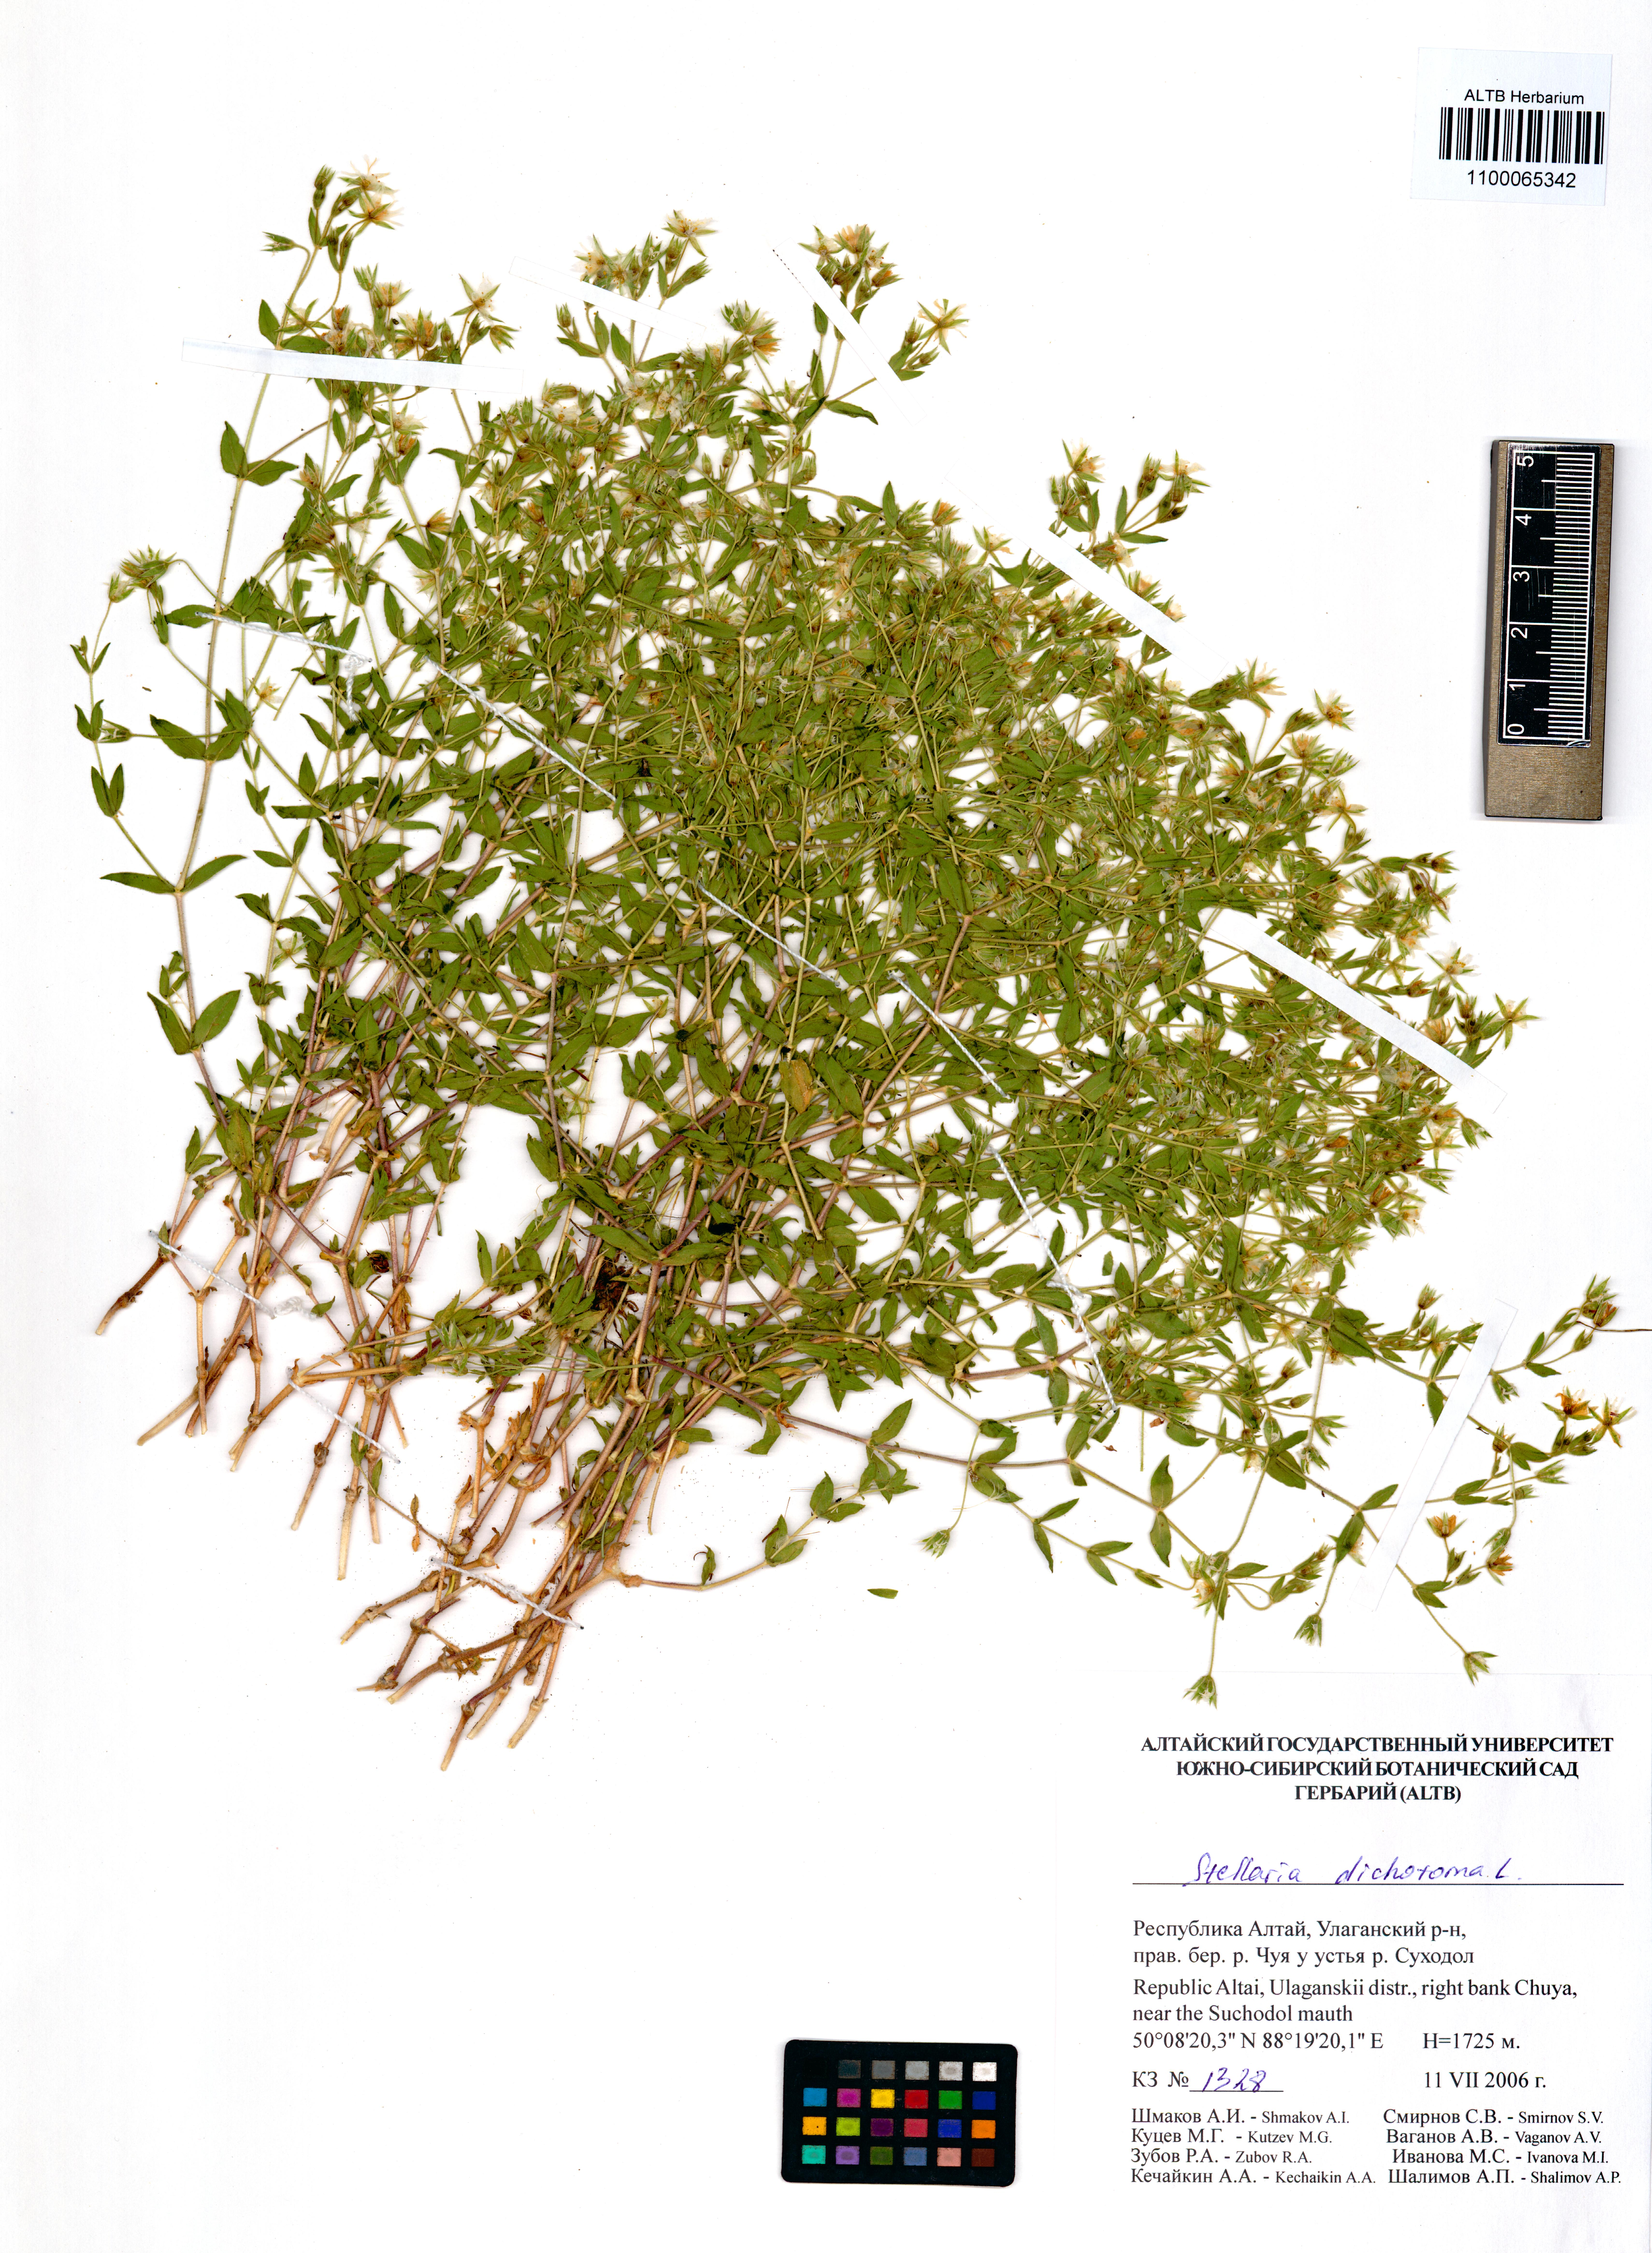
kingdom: Plantae
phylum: Tracheophyta
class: Magnoliopsida
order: Caryophyllales
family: Caryophyllaceae
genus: Mesostemma
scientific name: Mesostemma dichotomum
